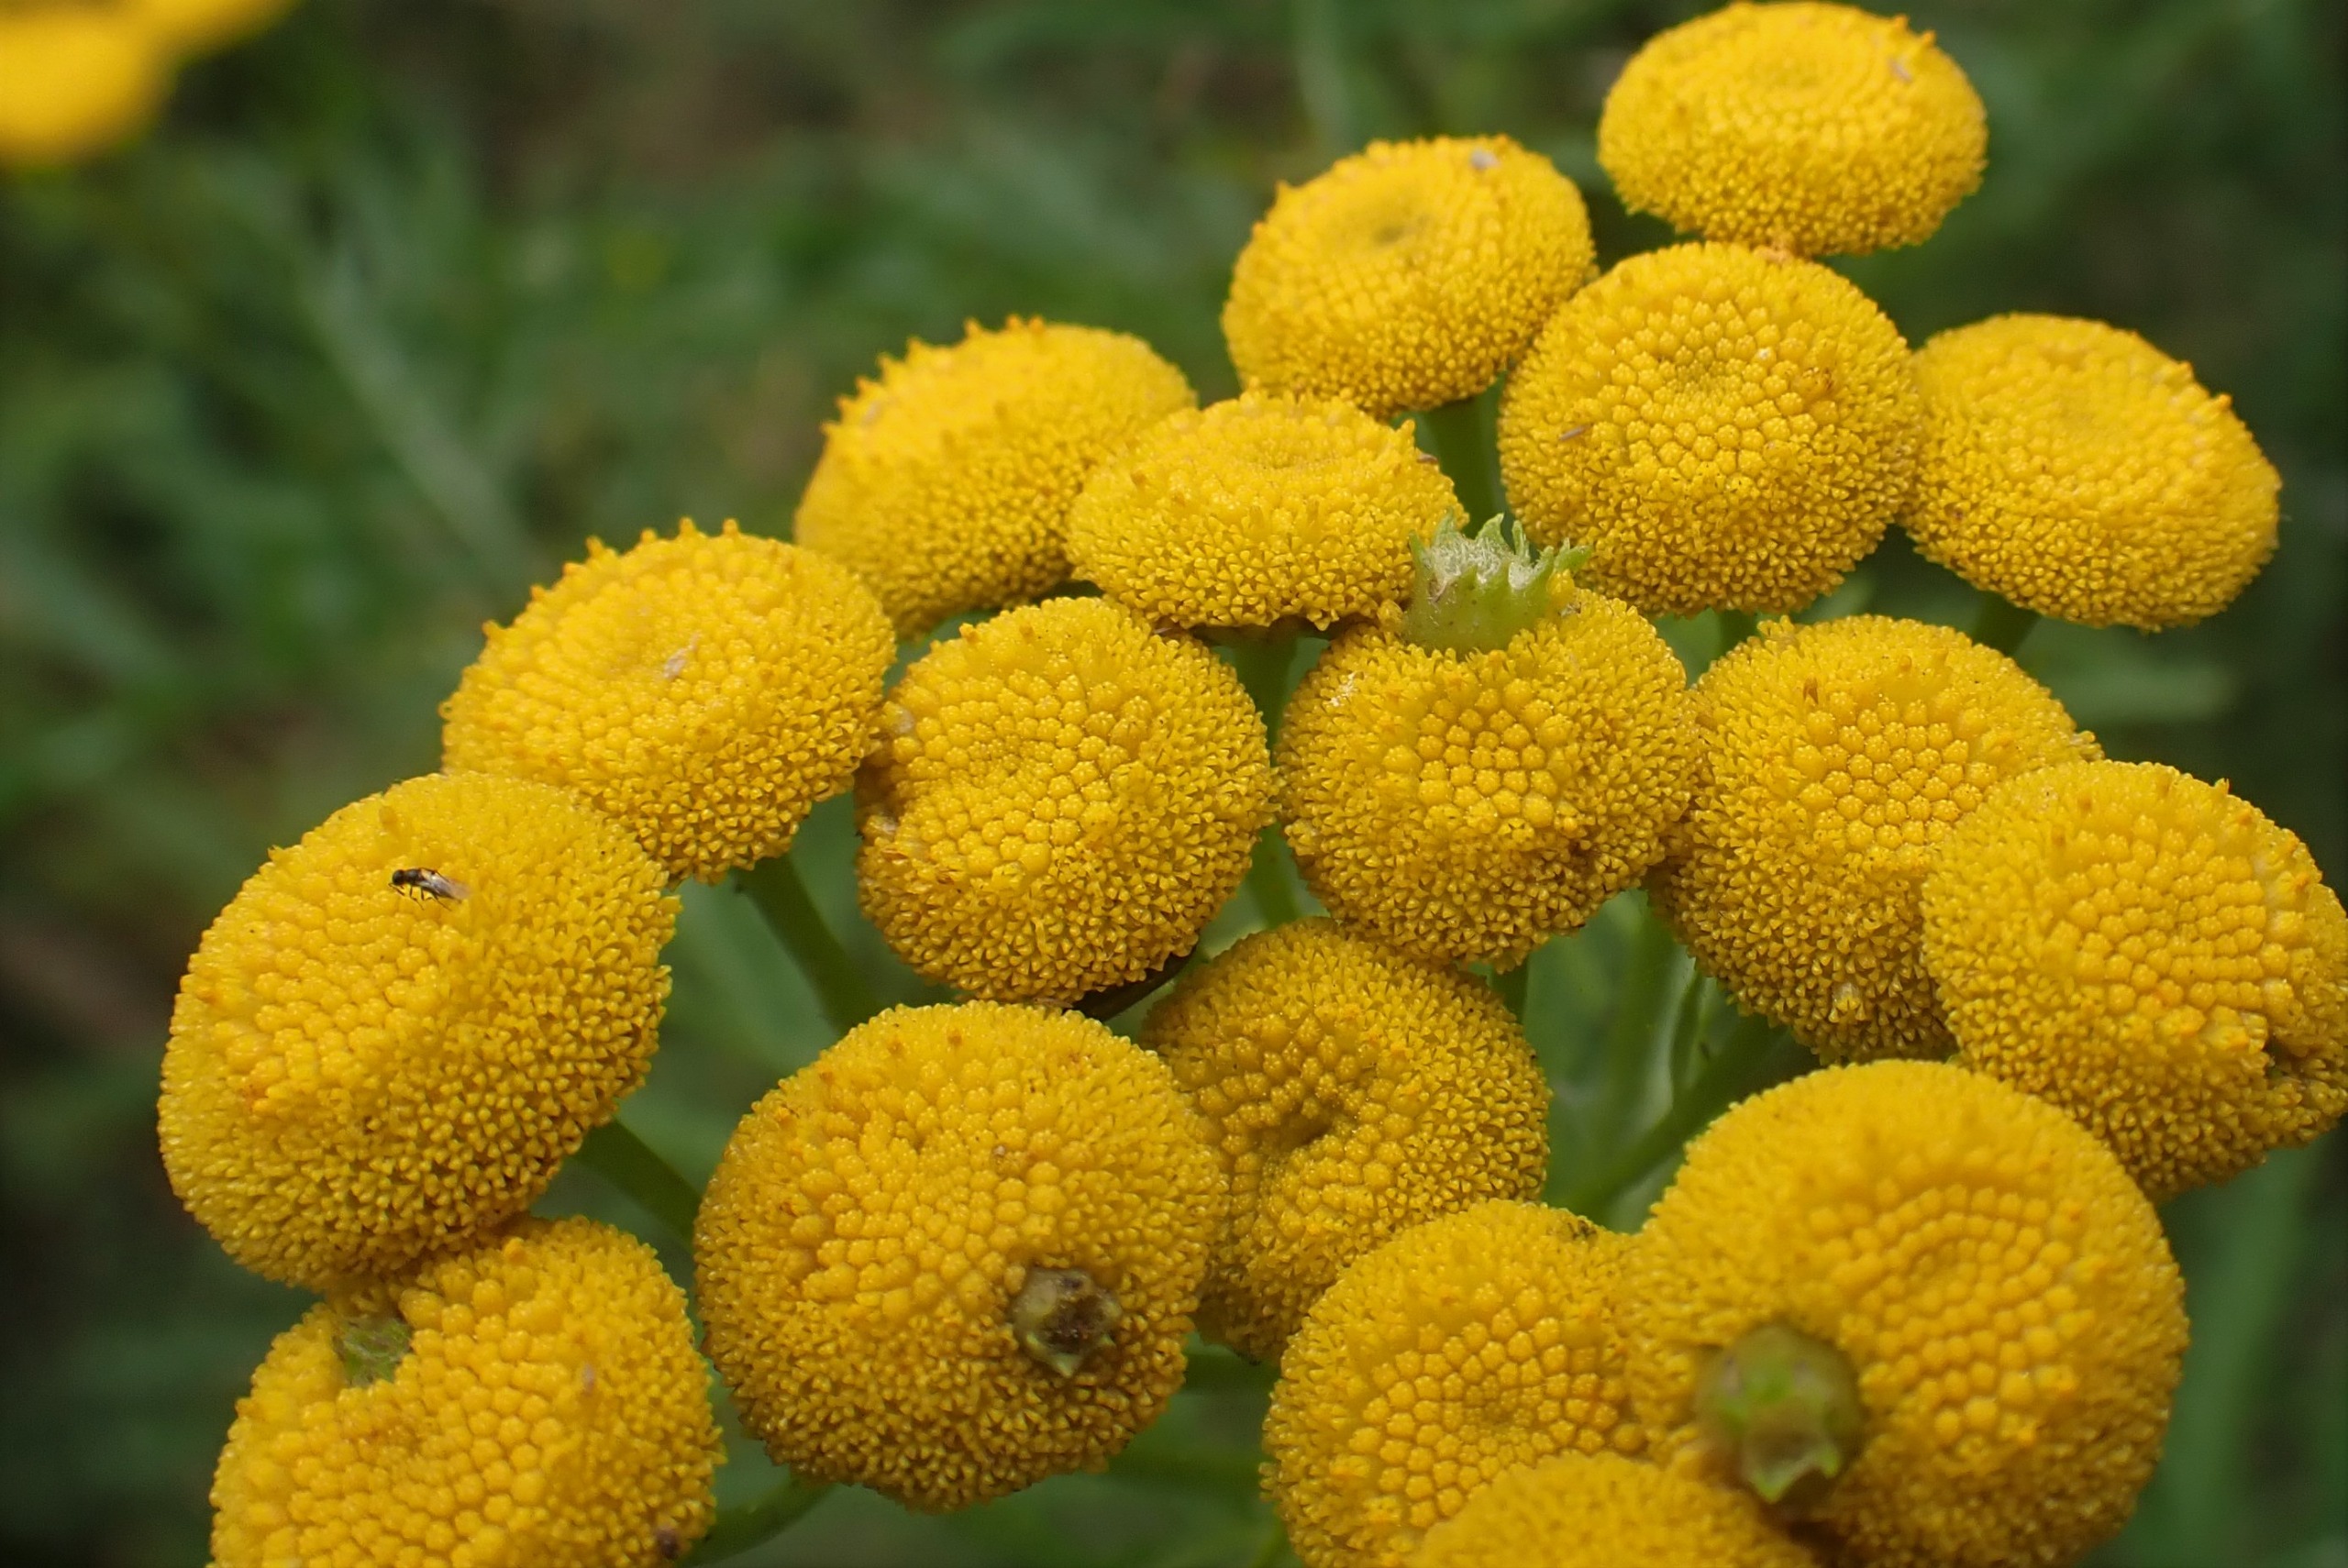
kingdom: Animalia
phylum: Arthropoda
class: Insecta
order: Diptera
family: Cecidomyiidae
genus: Rhopalomyia
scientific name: Rhopalomyia tanaceticolus
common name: Rejnfangalmyg
